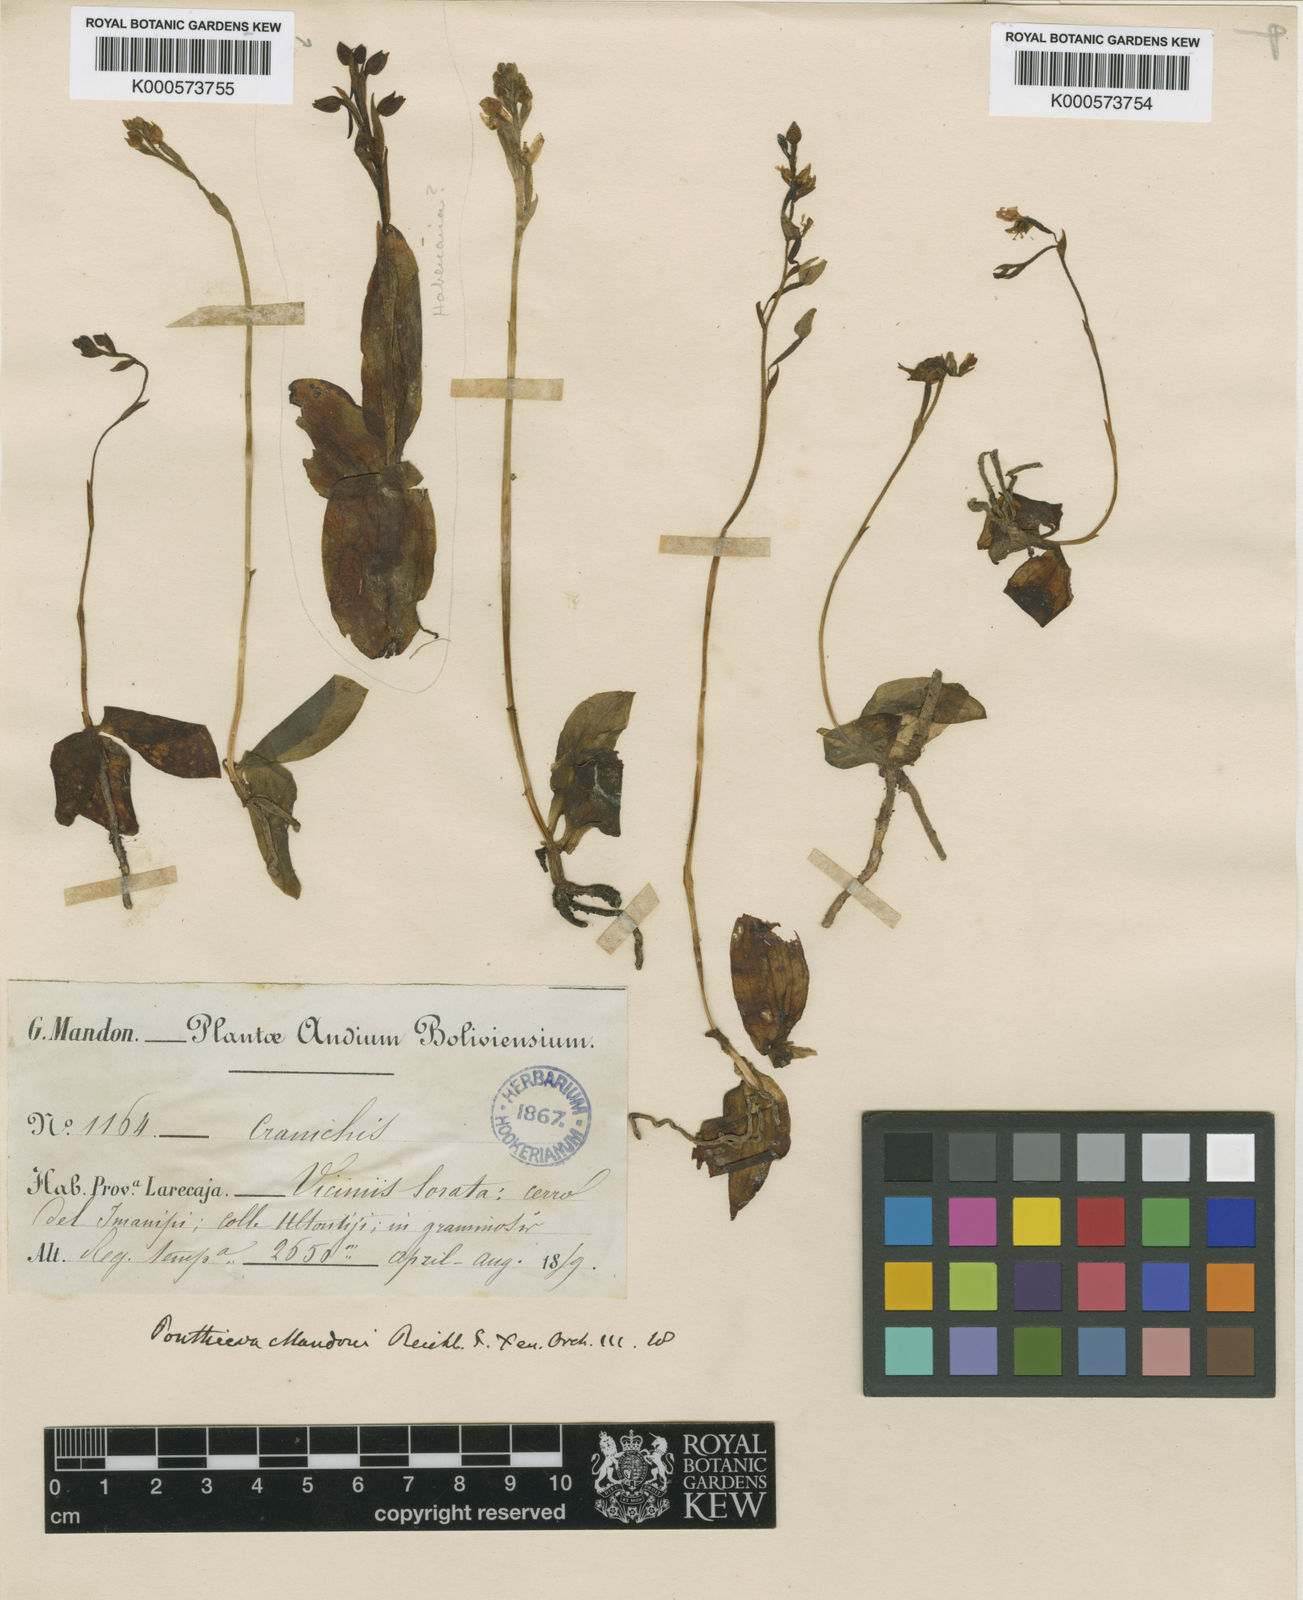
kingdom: Plantae
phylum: Tracheophyta
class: Liliopsida
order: Asparagales
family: Orchidaceae
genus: Ponthieva
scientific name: Ponthieva mandonii
